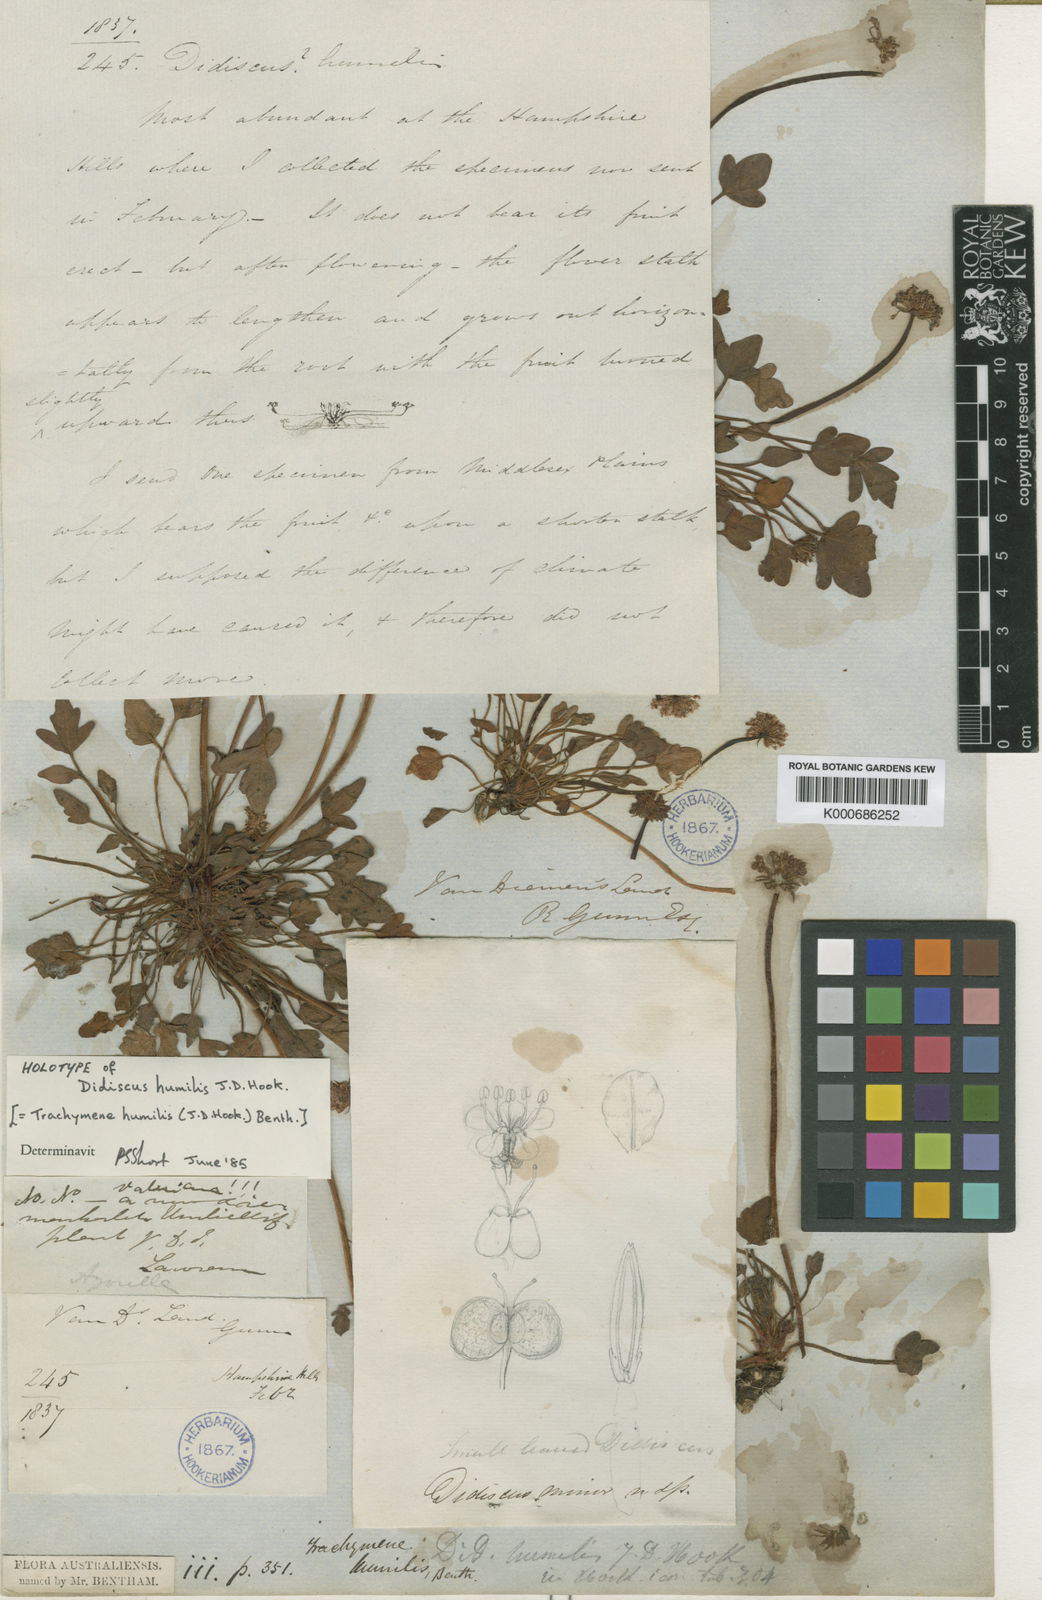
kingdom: Plantae
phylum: Tracheophyta
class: Magnoliopsida
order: Apiales
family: Araliaceae
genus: Trachymene
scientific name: Trachymene humilis
